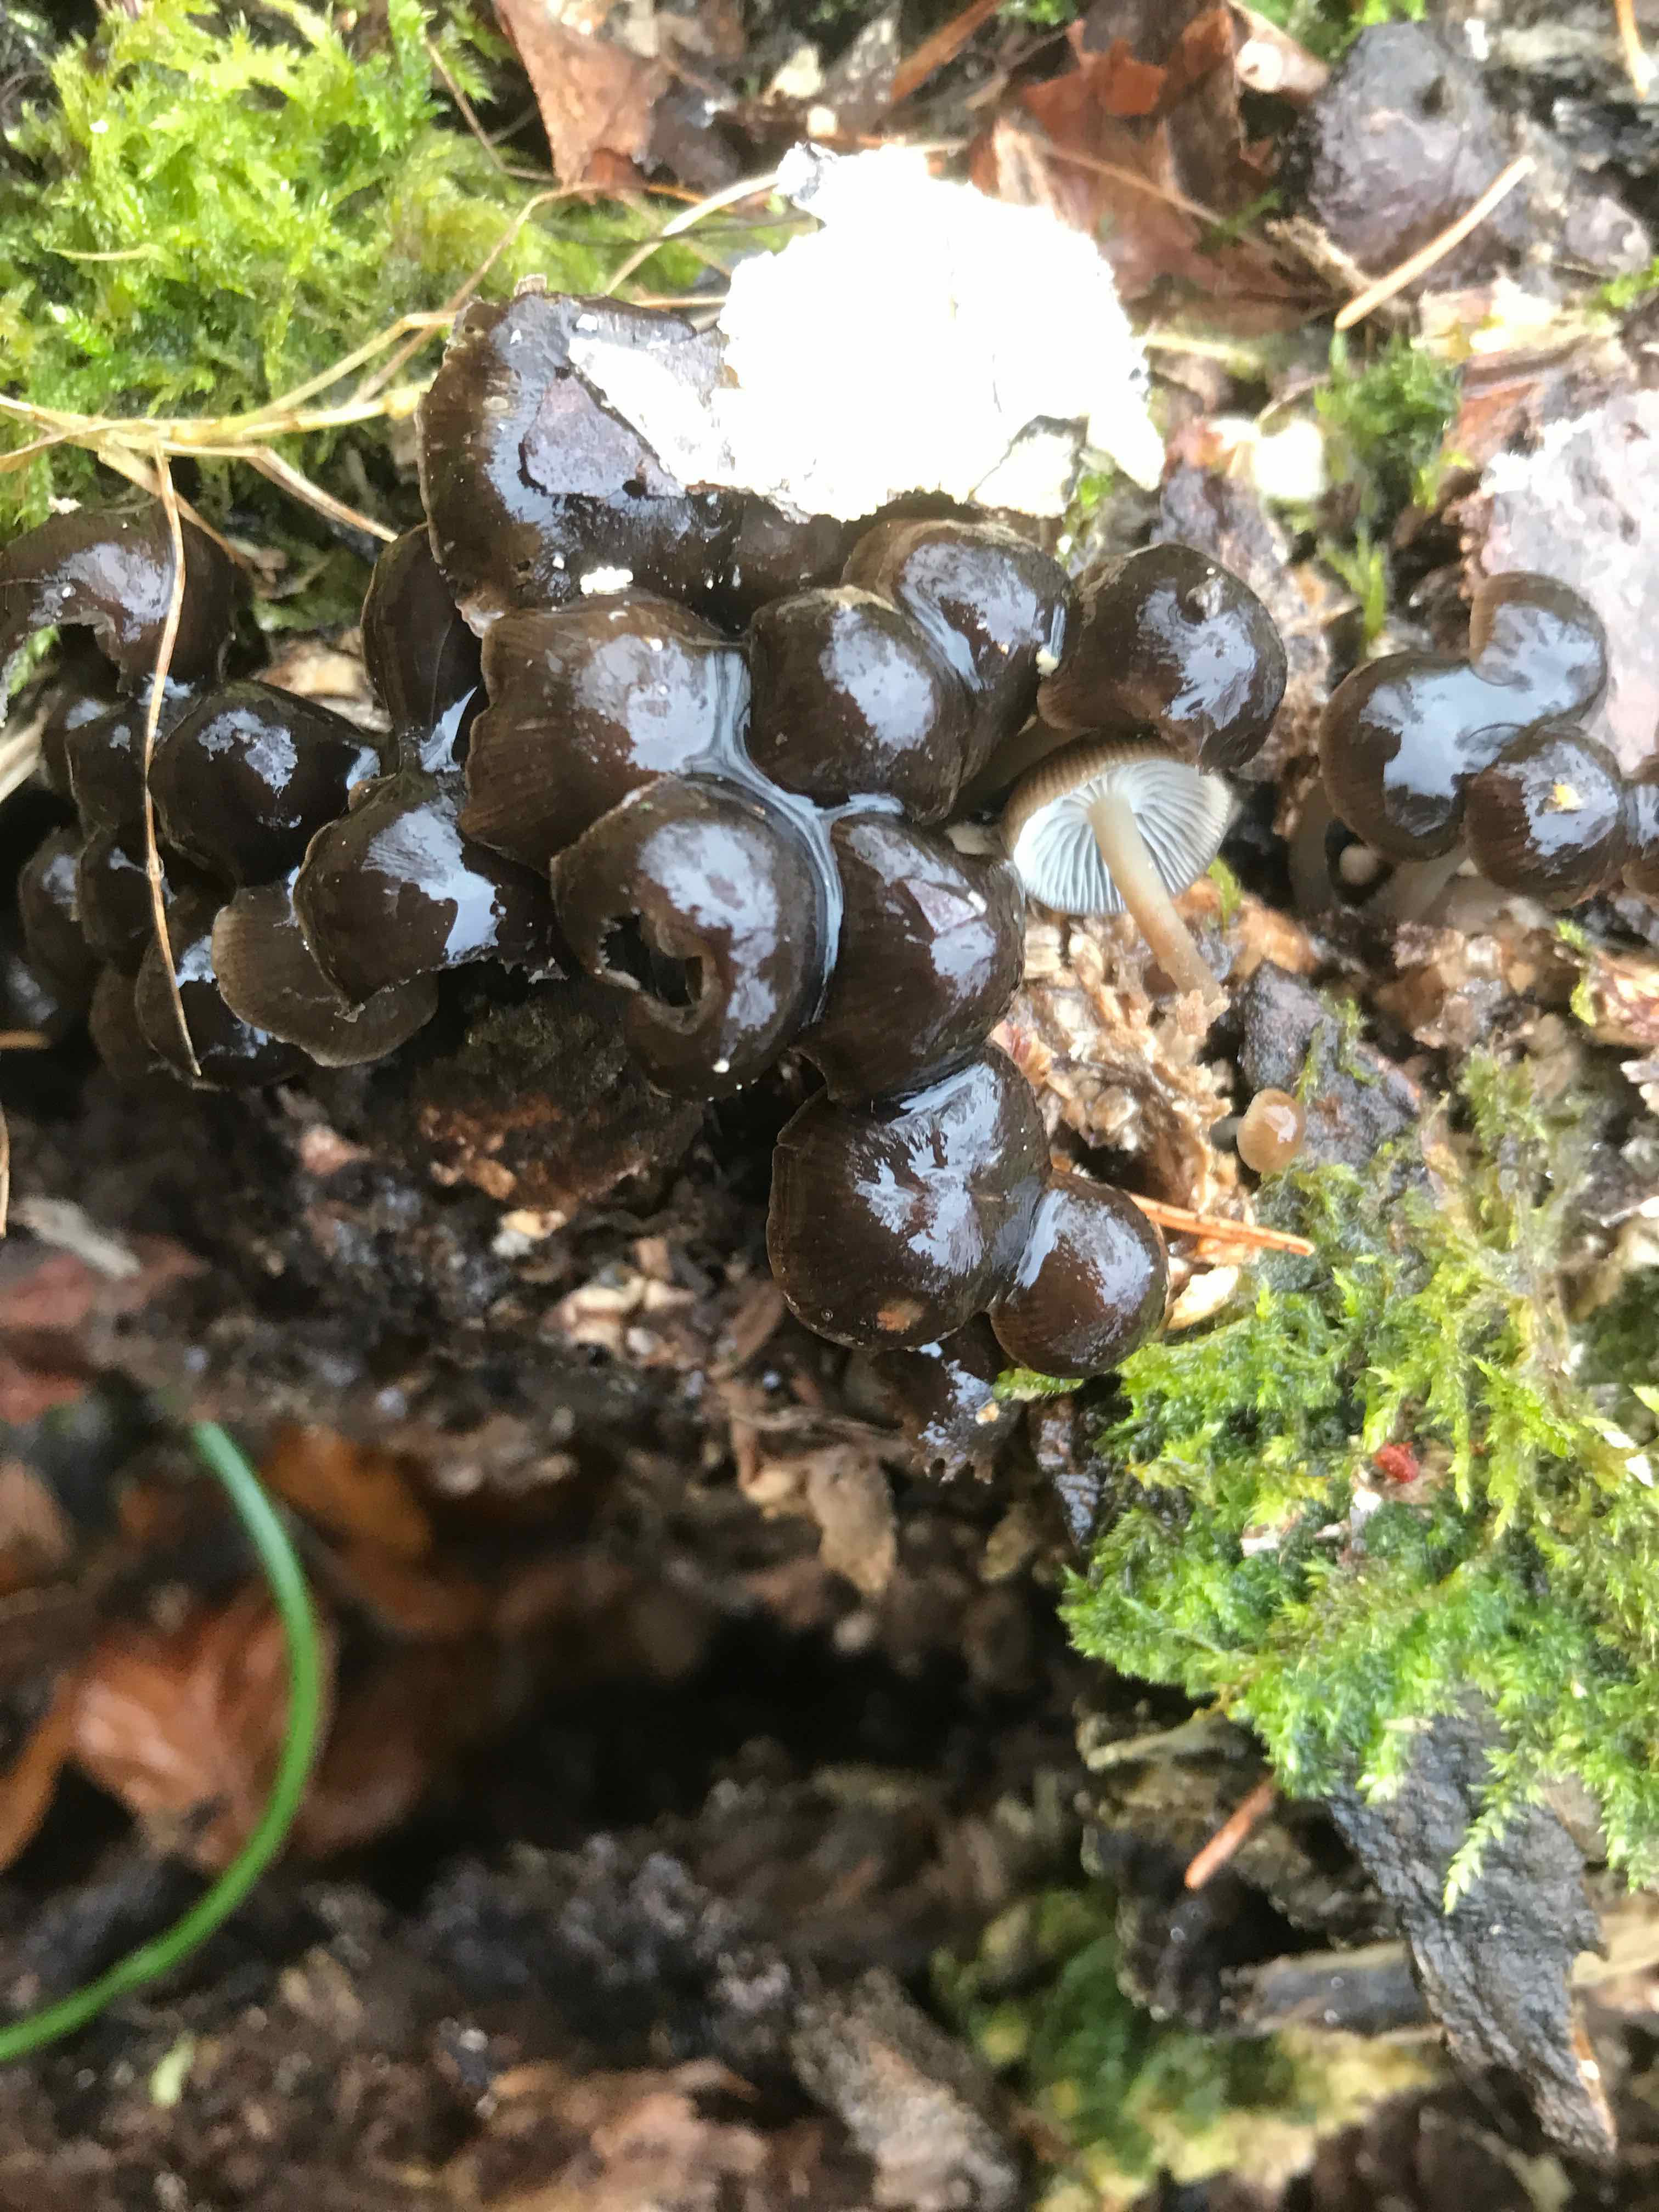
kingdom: Fungi
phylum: Basidiomycota
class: Agaricomycetes
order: Agaricales
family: Mycenaceae
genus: Mycena
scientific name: Mycena tintinnabulum
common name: vinter-huesvamp
